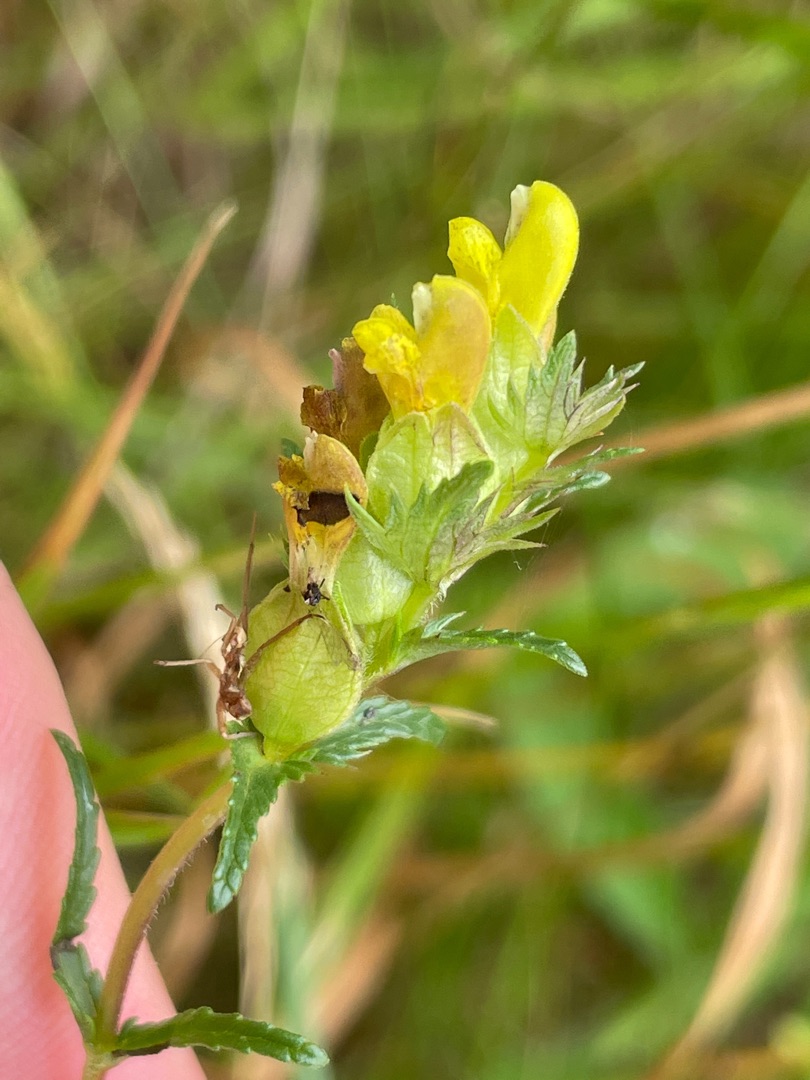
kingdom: Plantae
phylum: Tracheophyta
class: Magnoliopsida
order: Lamiales
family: Orobanchaceae
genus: Rhinanthus
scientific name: Rhinanthus minor
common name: Liden skjaller
